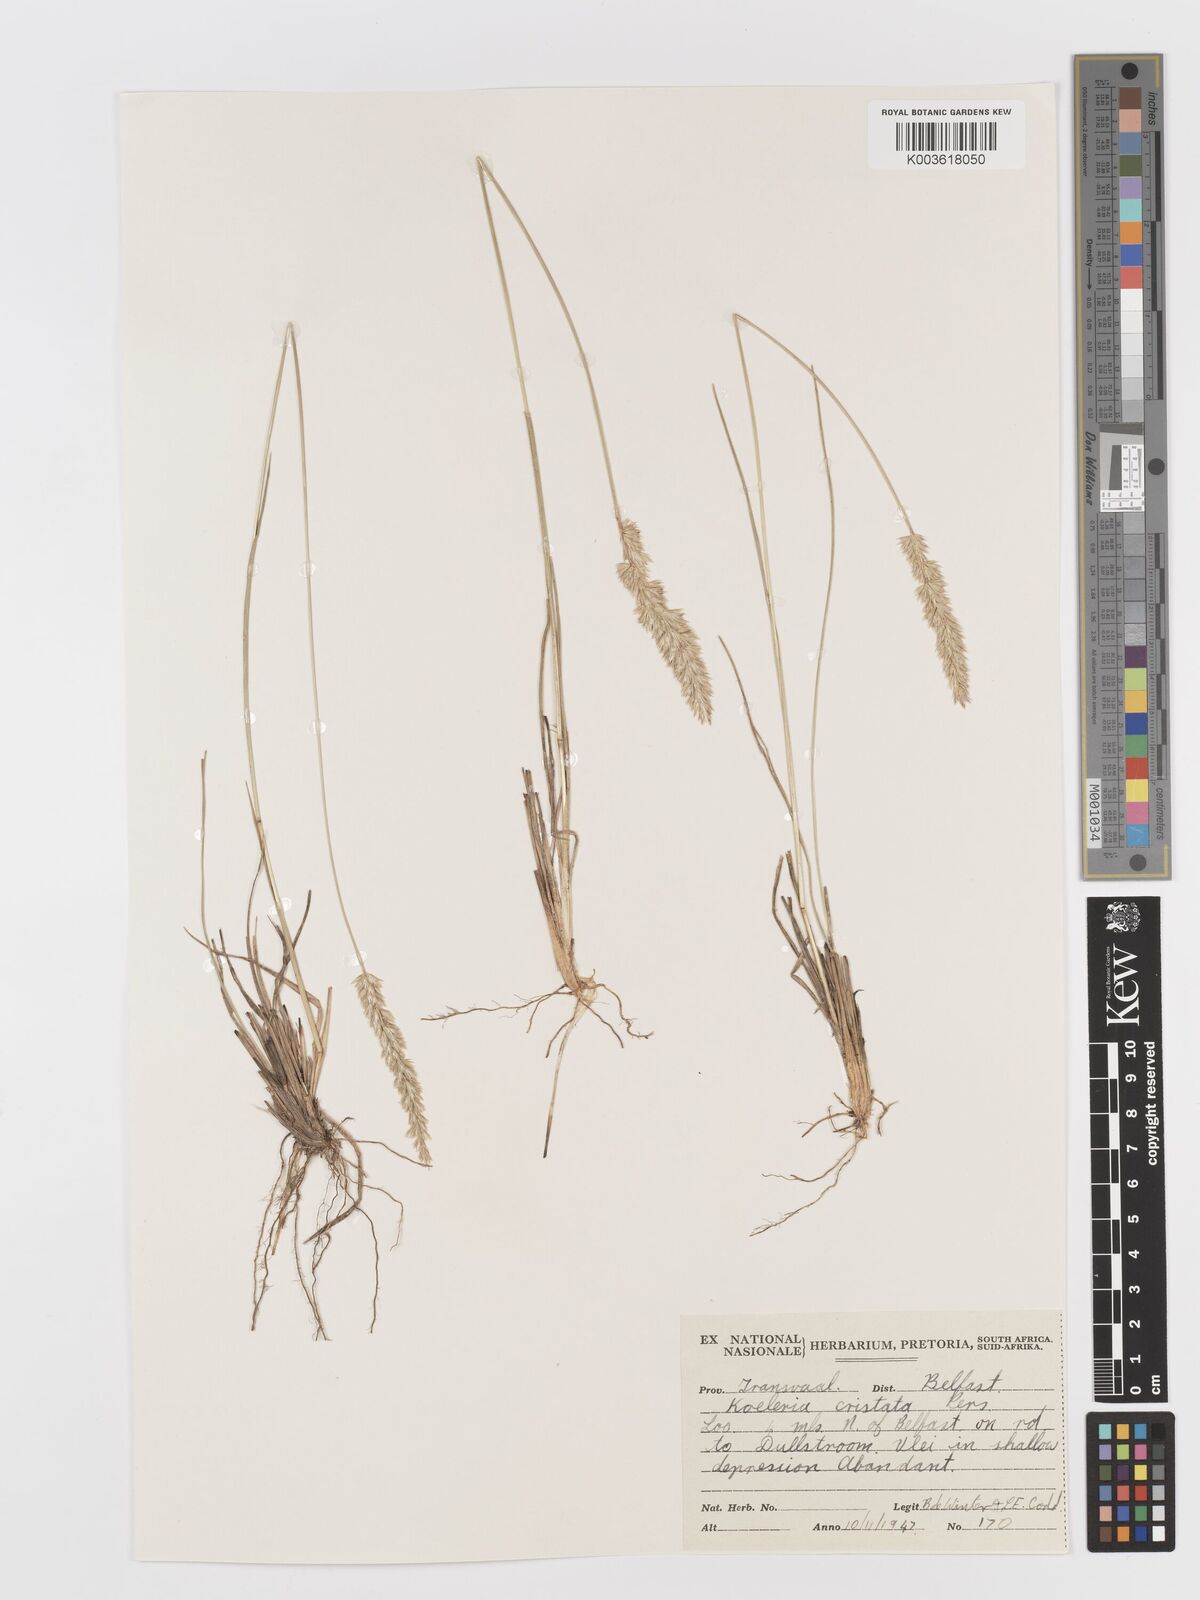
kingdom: Plantae
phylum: Tracheophyta
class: Liliopsida
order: Poales
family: Poaceae
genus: Koeleria
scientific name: Koeleria capensis
